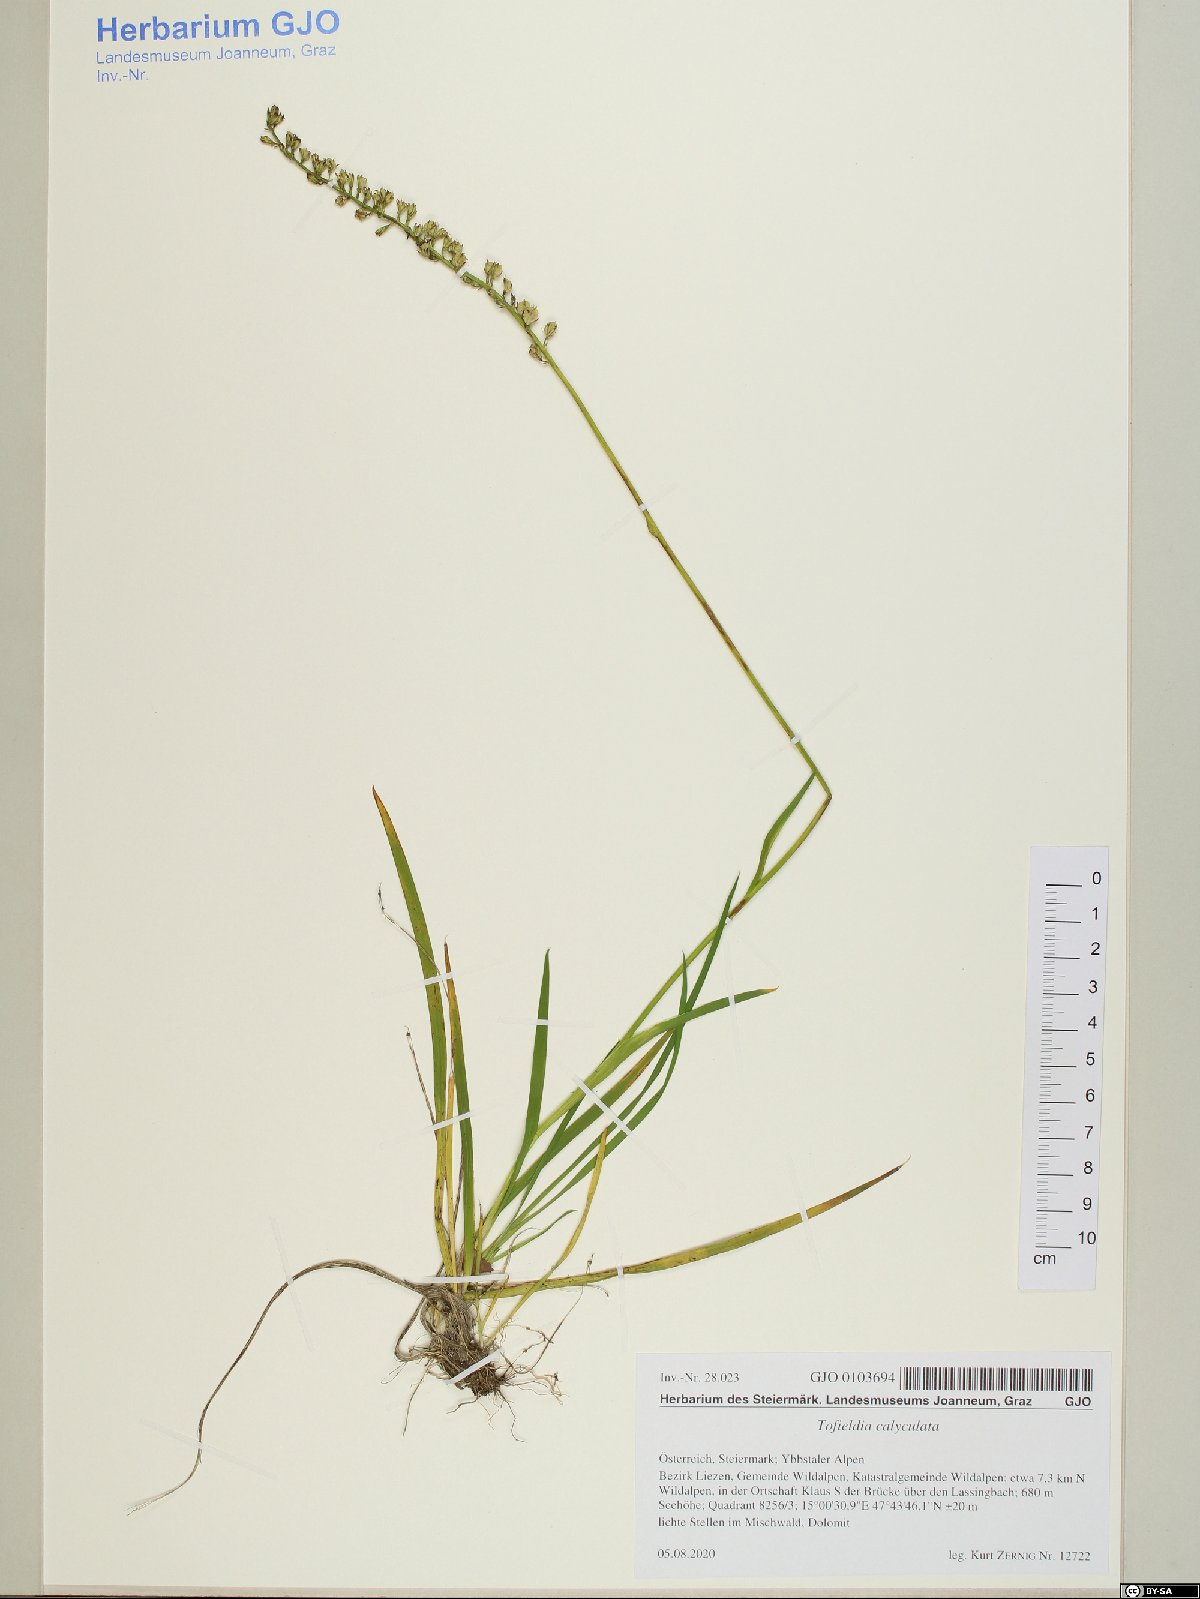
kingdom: Plantae
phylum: Tracheophyta
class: Liliopsida
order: Alismatales
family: Tofieldiaceae
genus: Tofieldia
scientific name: Tofieldia calyculata
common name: German-asphodel
